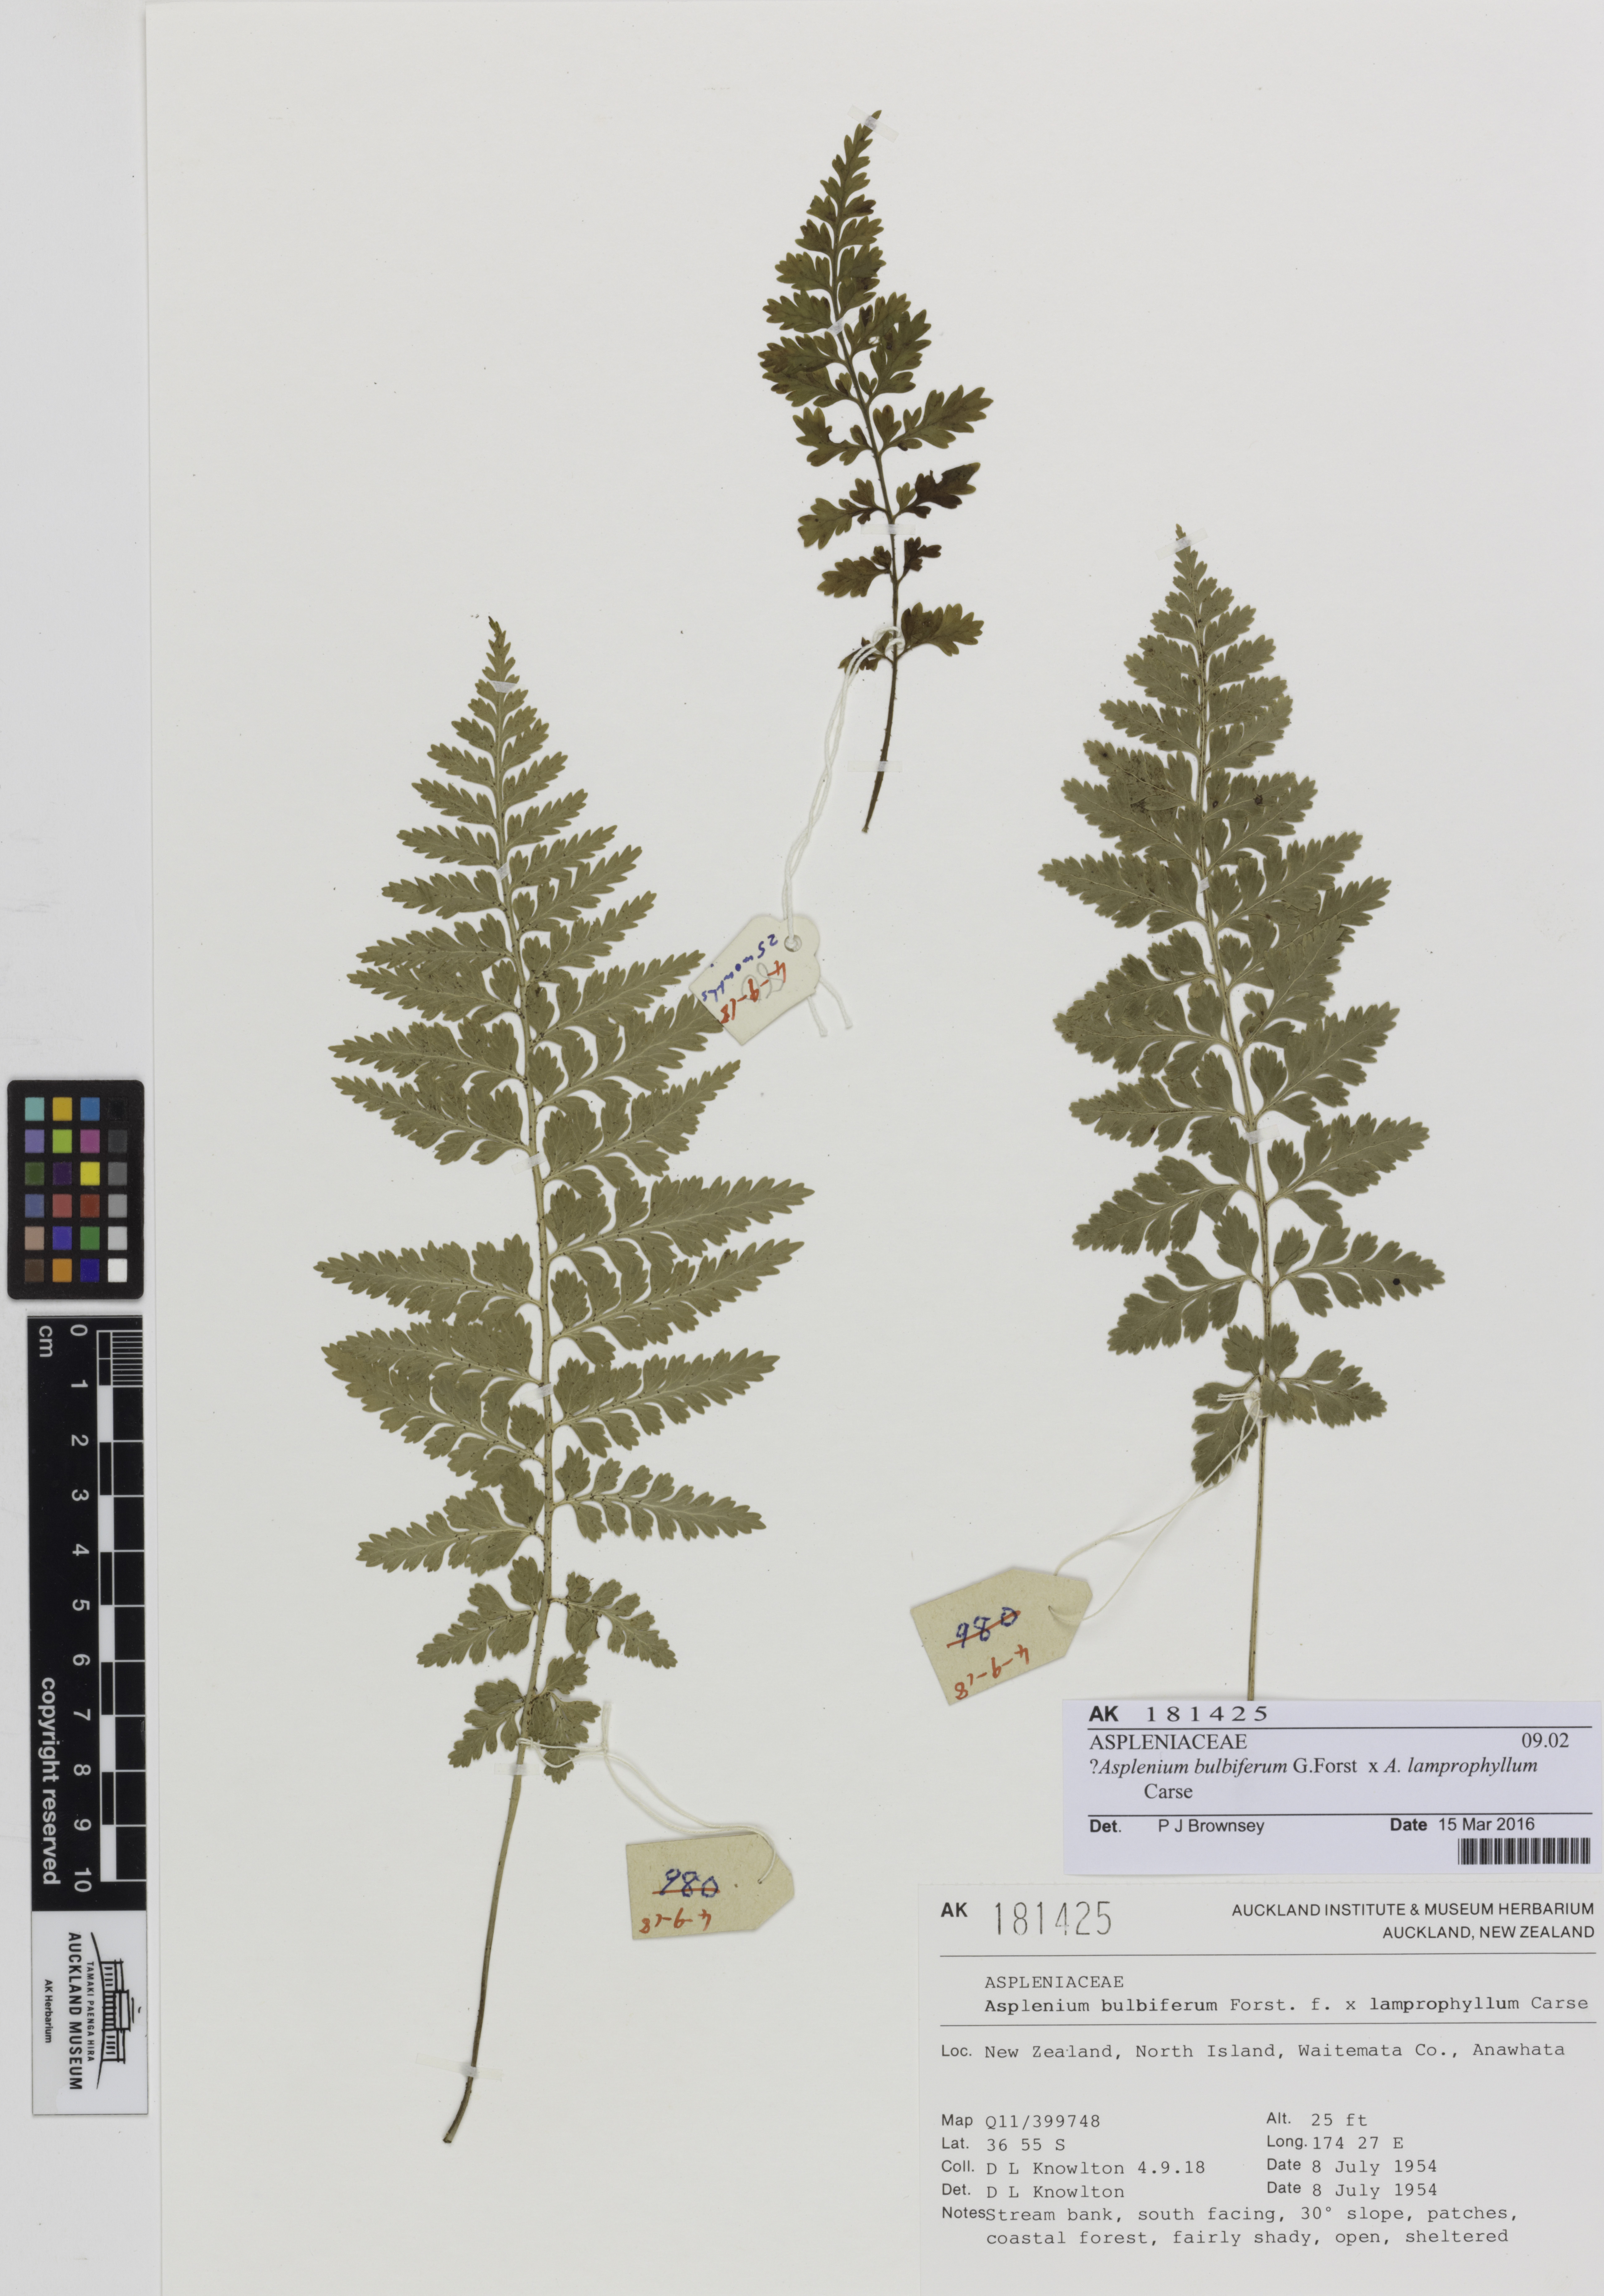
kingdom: Plantae
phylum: Tracheophyta
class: Polypodiopsida
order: Polypodiales
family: Aspleniaceae
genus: Asplenium
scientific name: Asplenium
